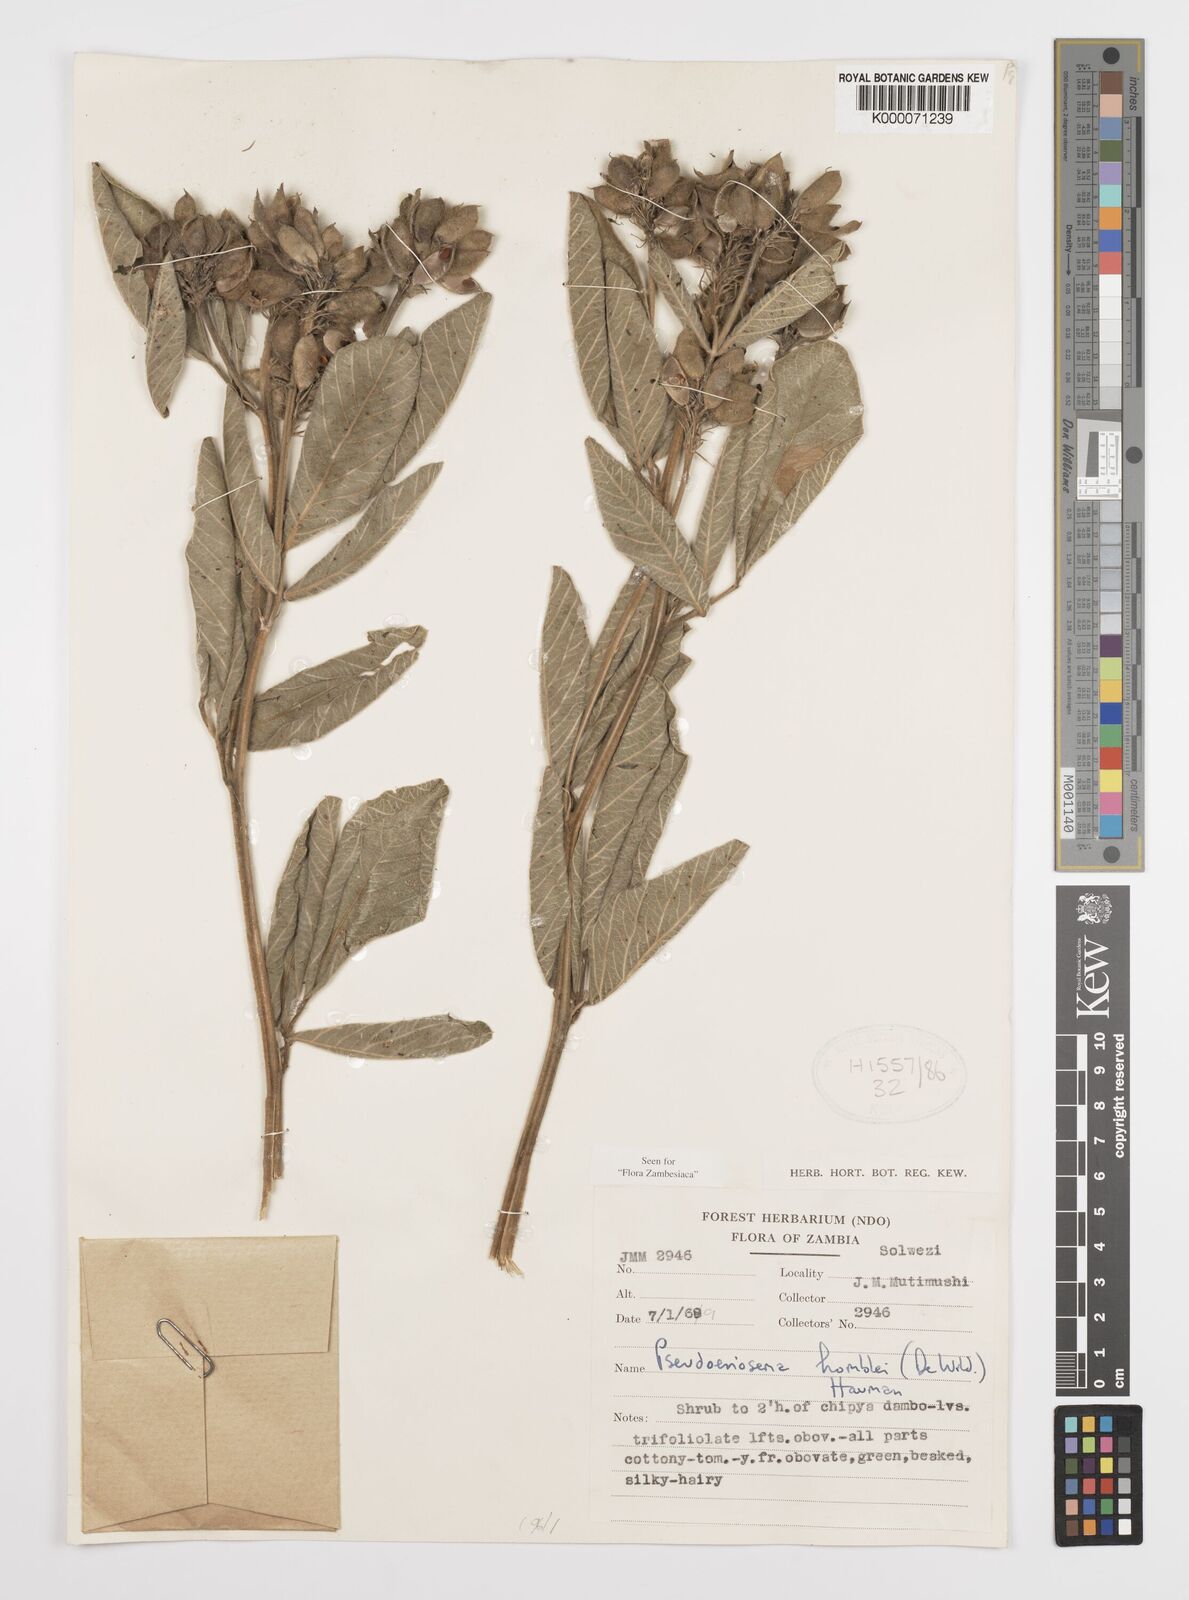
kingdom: Plantae
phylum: Tracheophyta
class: Magnoliopsida
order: Fabales
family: Fabaceae
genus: Pseudoeriosema
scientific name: Pseudoeriosema homblei
